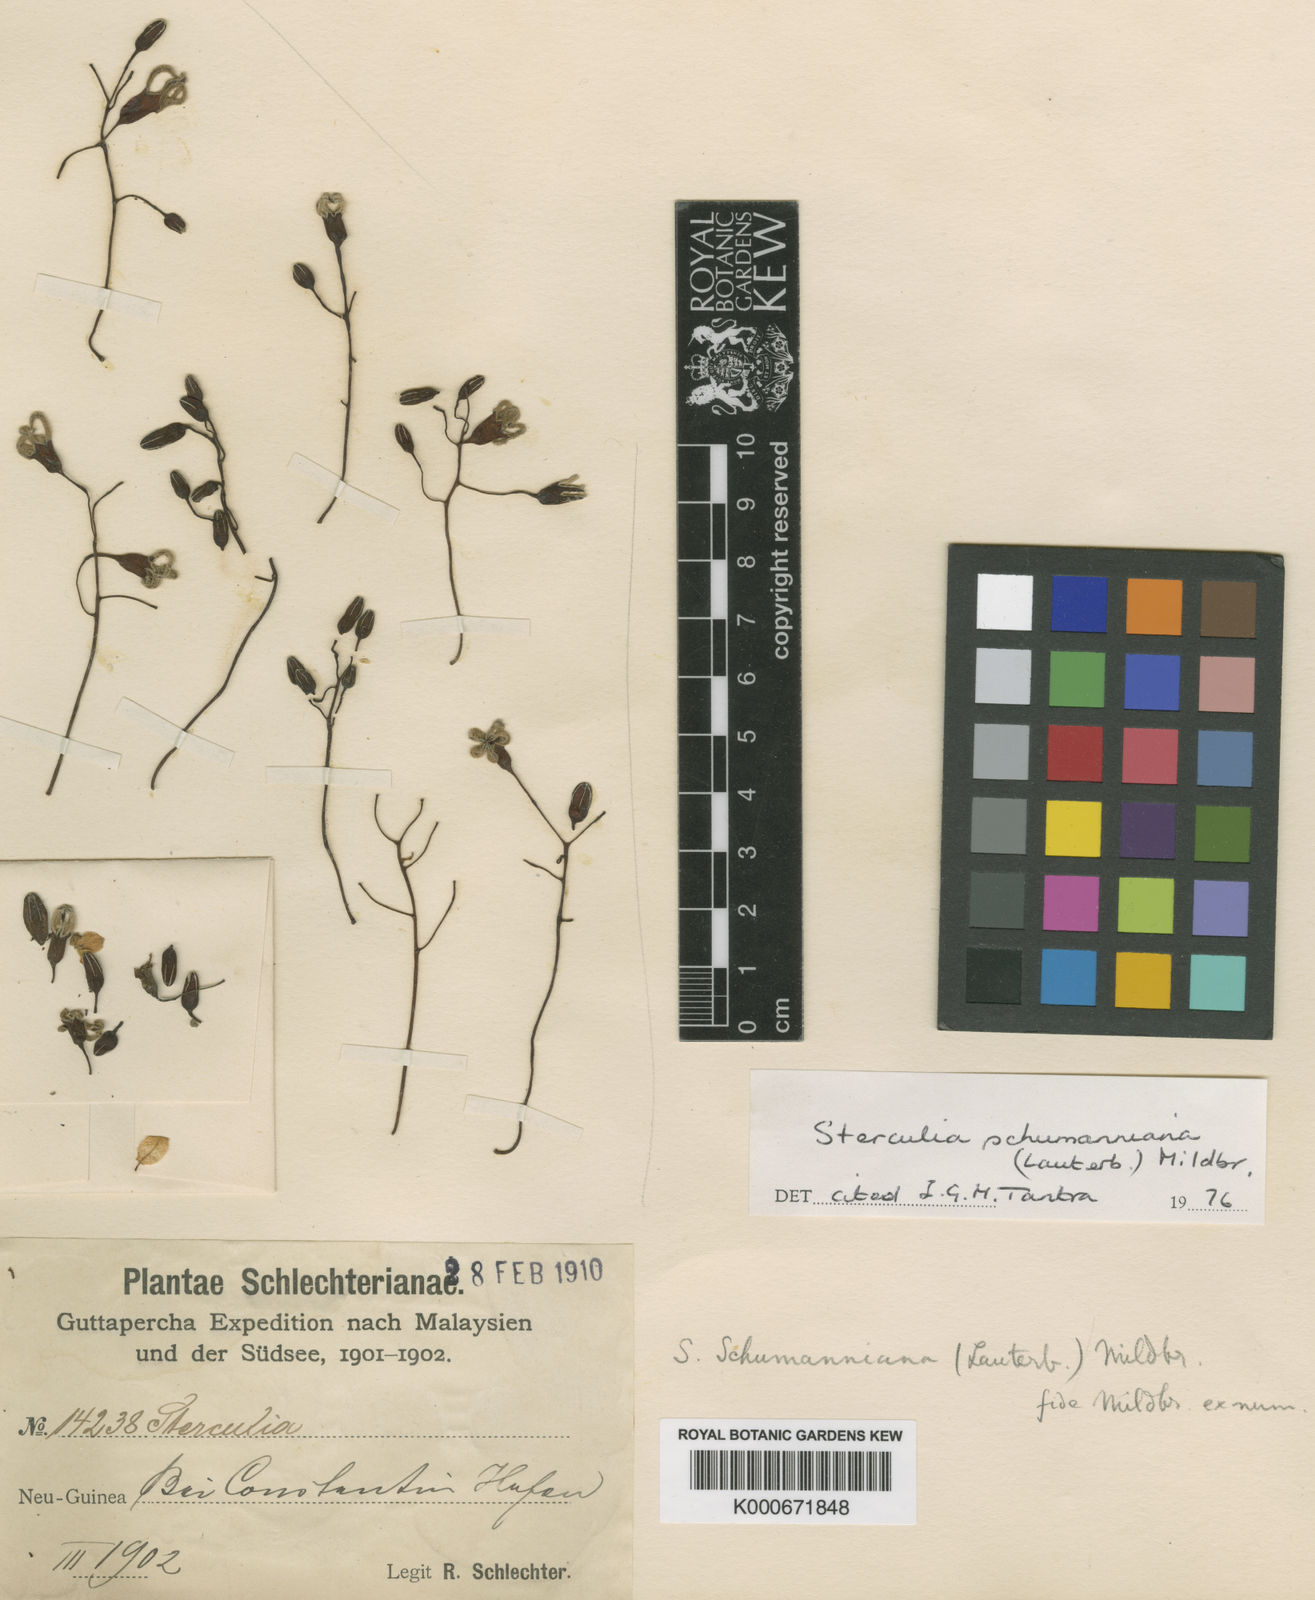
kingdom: Plantae
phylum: Tracheophyta
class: Magnoliopsida
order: Malvales
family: Malvaceae
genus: Sterculia
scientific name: Sterculia tantraensis
